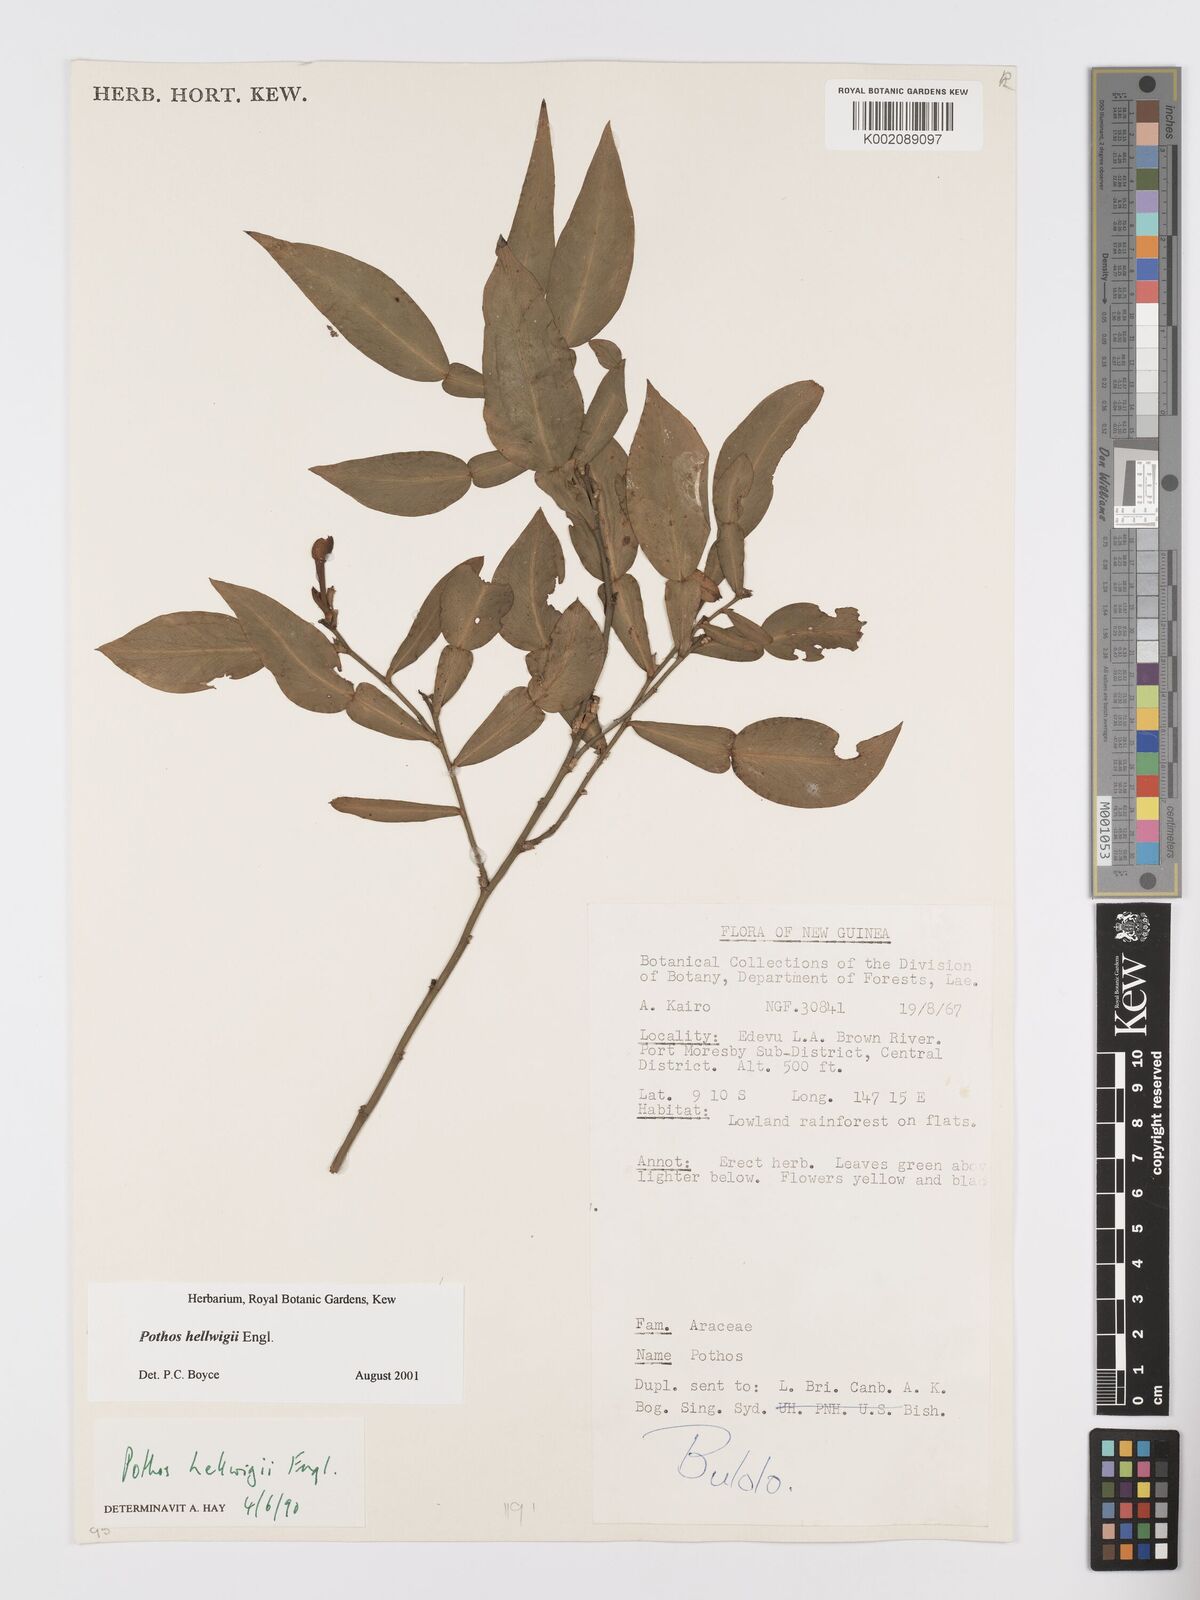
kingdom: Plantae
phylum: Tracheophyta
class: Liliopsida
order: Alismatales
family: Araceae
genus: Pothos
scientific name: Pothos hellwigii
